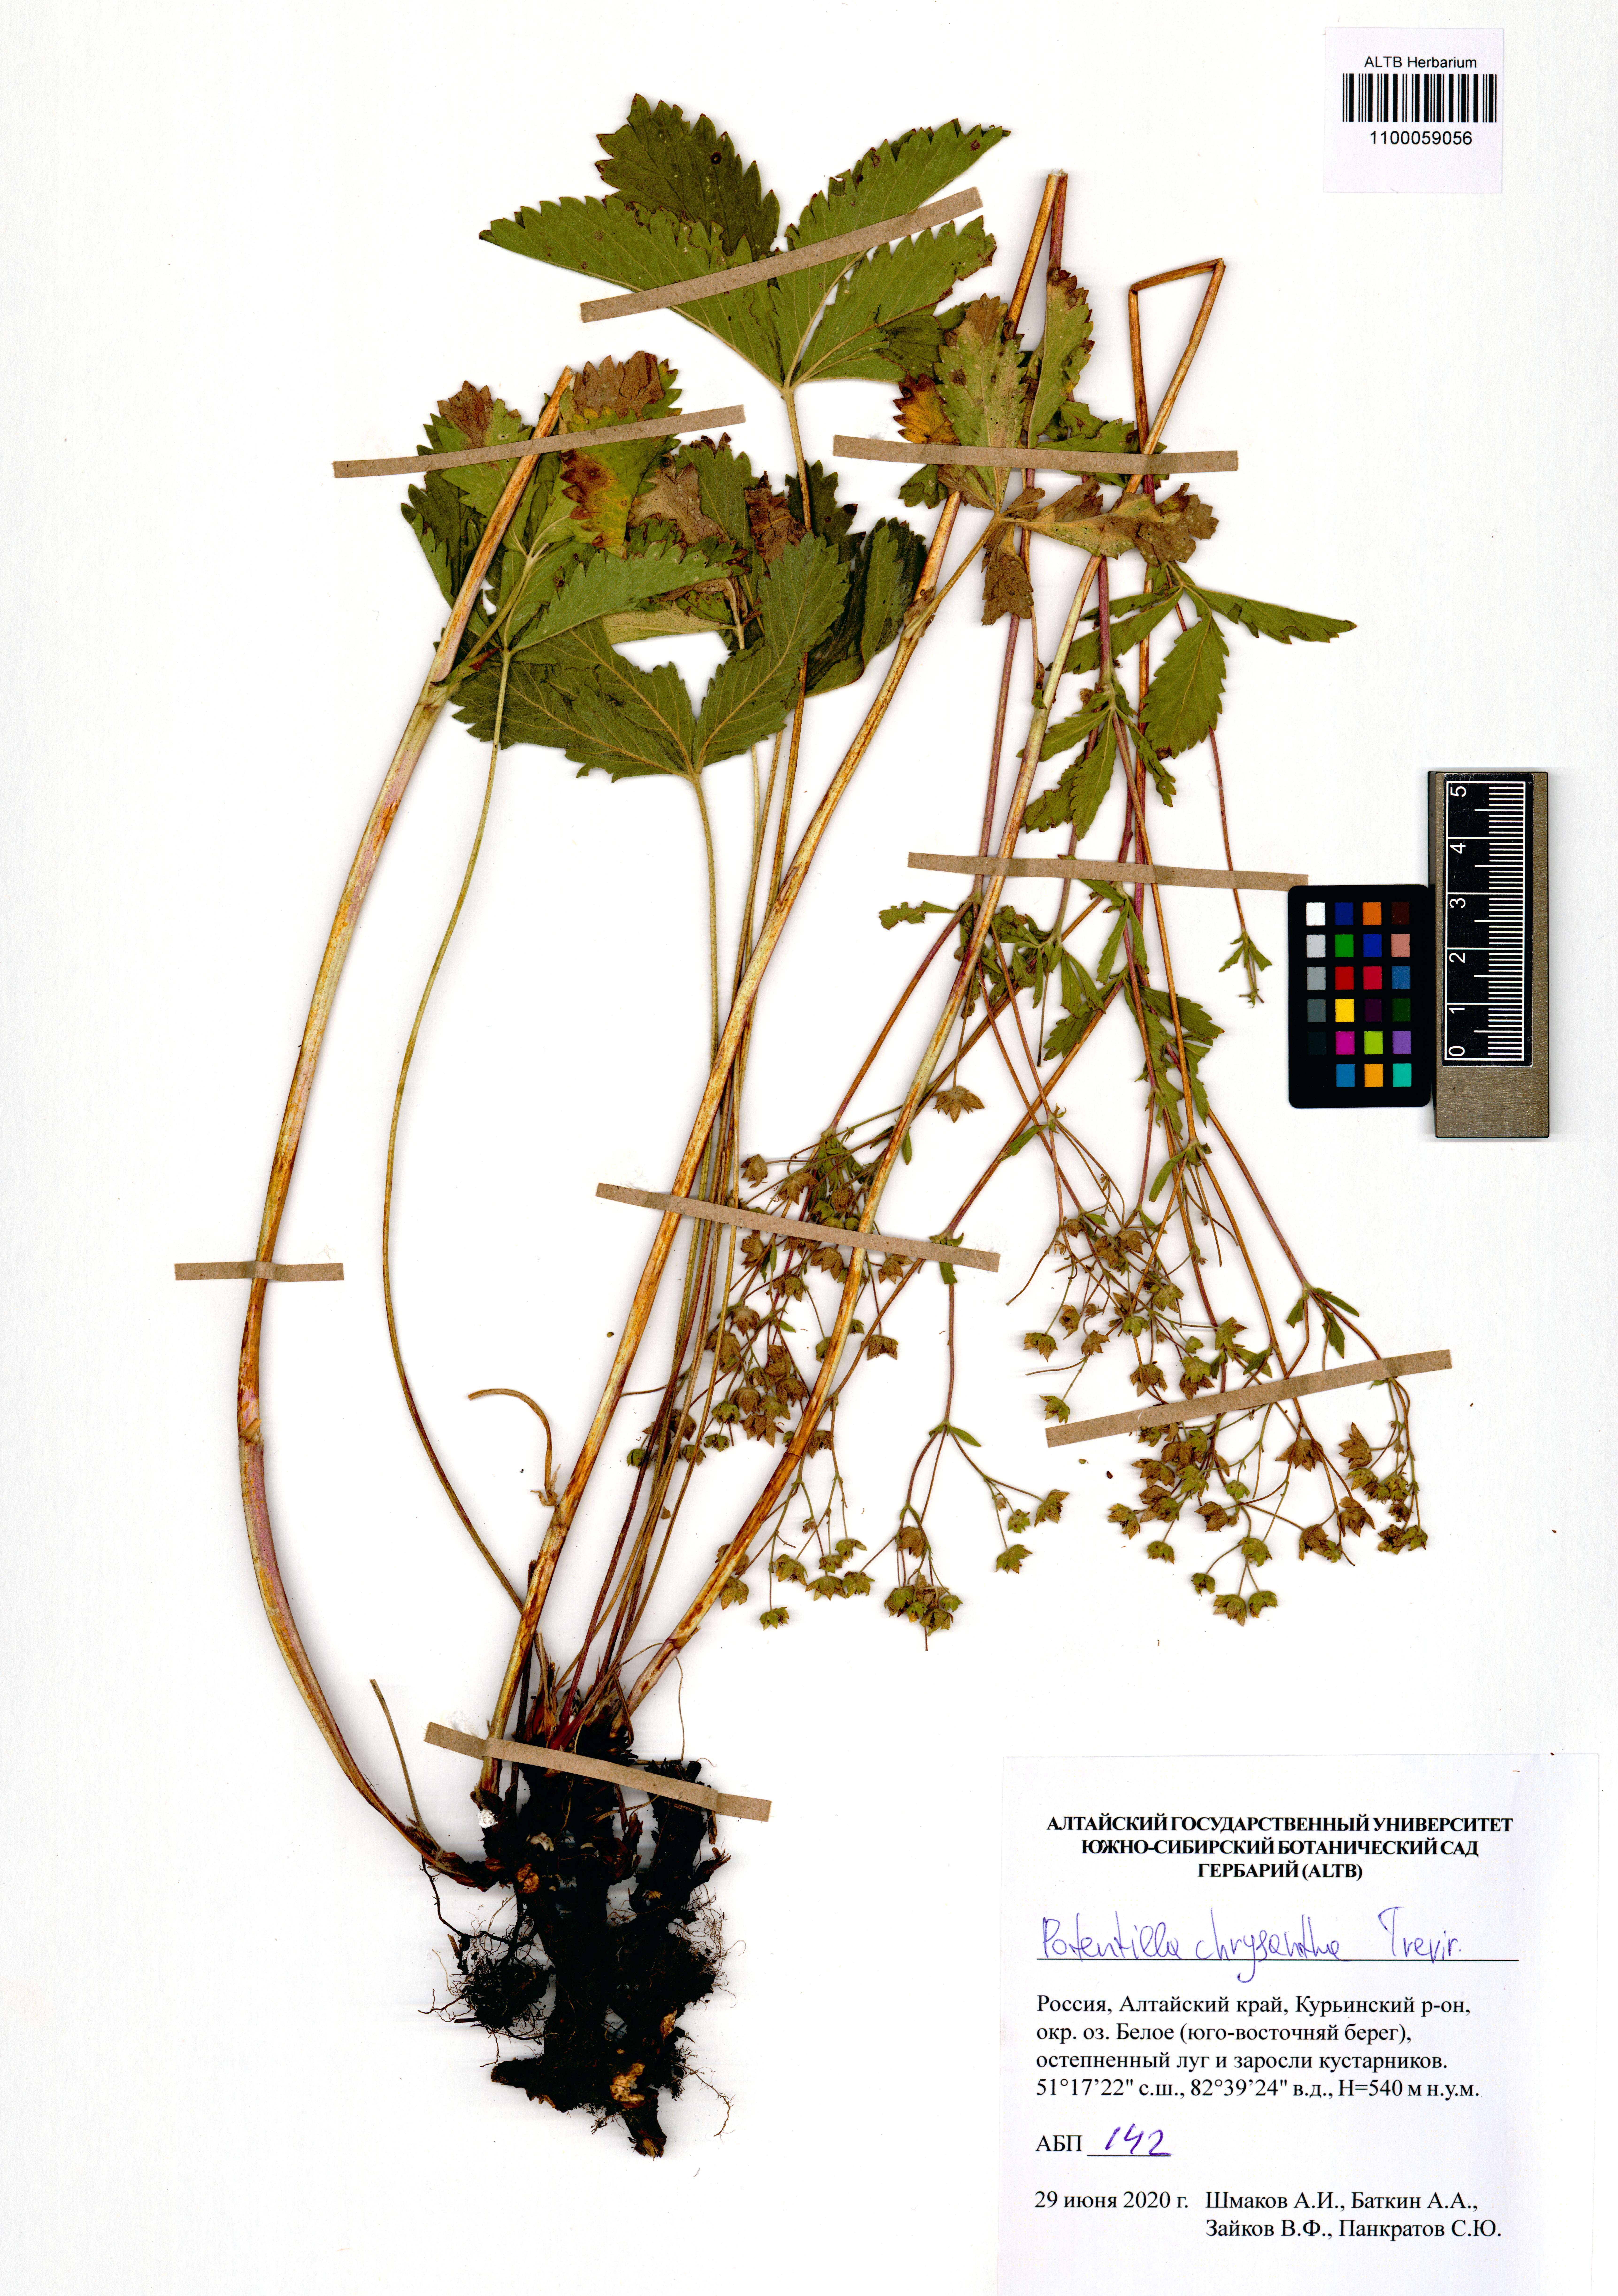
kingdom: Plantae
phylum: Tracheophyta
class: Magnoliopsida
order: Rosales
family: Rosaceae
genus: Potentilla
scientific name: Potentilla chrysantha
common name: Thuringian cinquefoil
